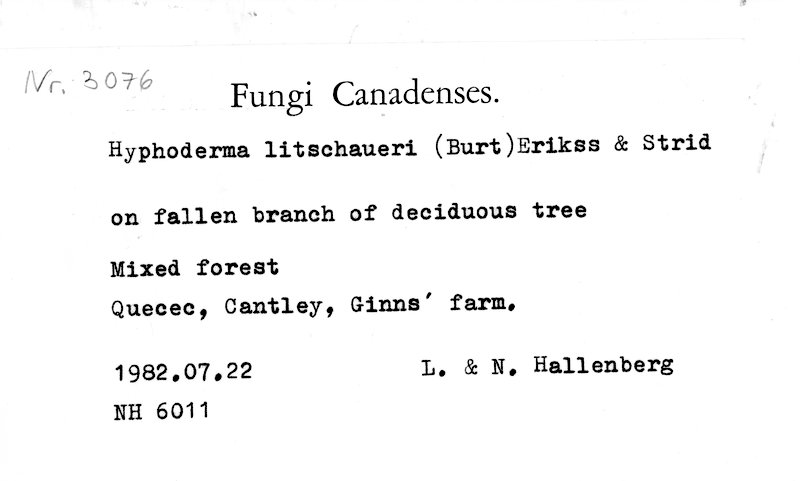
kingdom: Fungi
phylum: Basidiomycota
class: Agaricomycetes
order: Polyporales
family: Hyphodermataceae
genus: Hyphoderma
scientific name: Hyphoderma litschaueri
